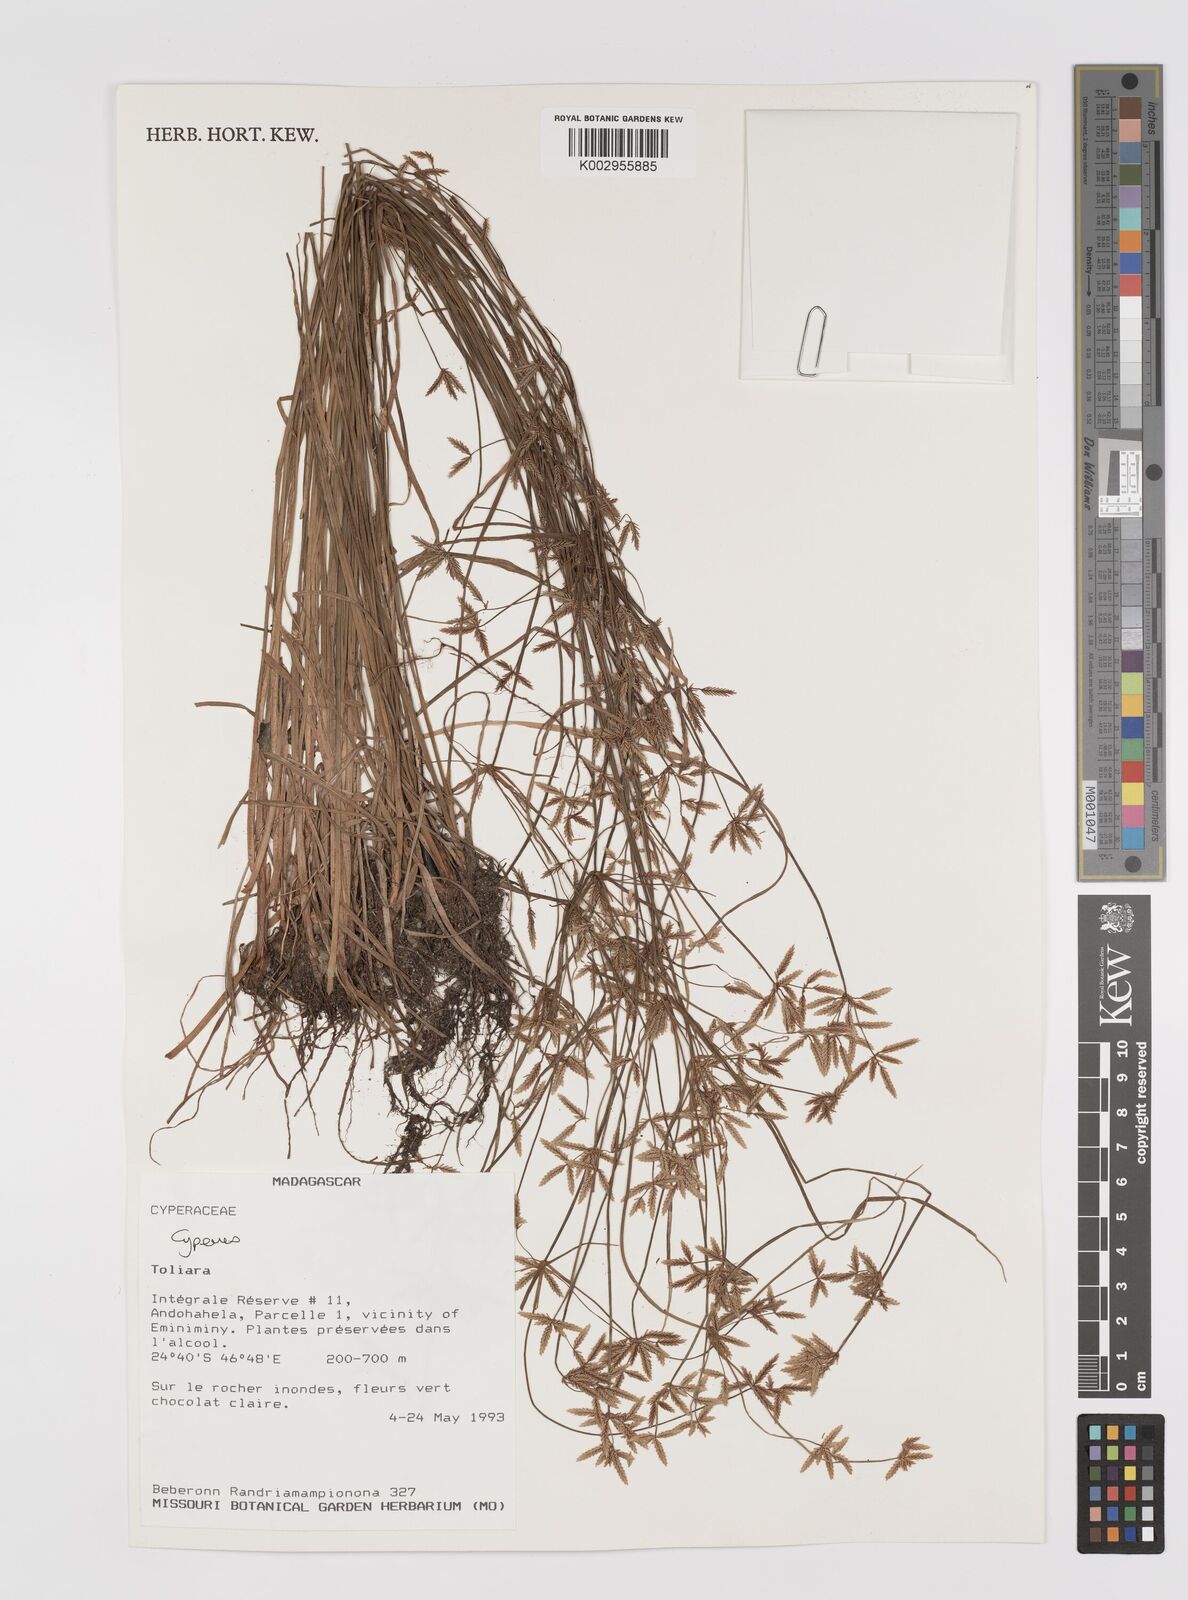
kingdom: Plantae
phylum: Tracheophyta
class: Liliopsida
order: Poales
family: Cyperaceae
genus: Cyperus
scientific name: Cyperus
